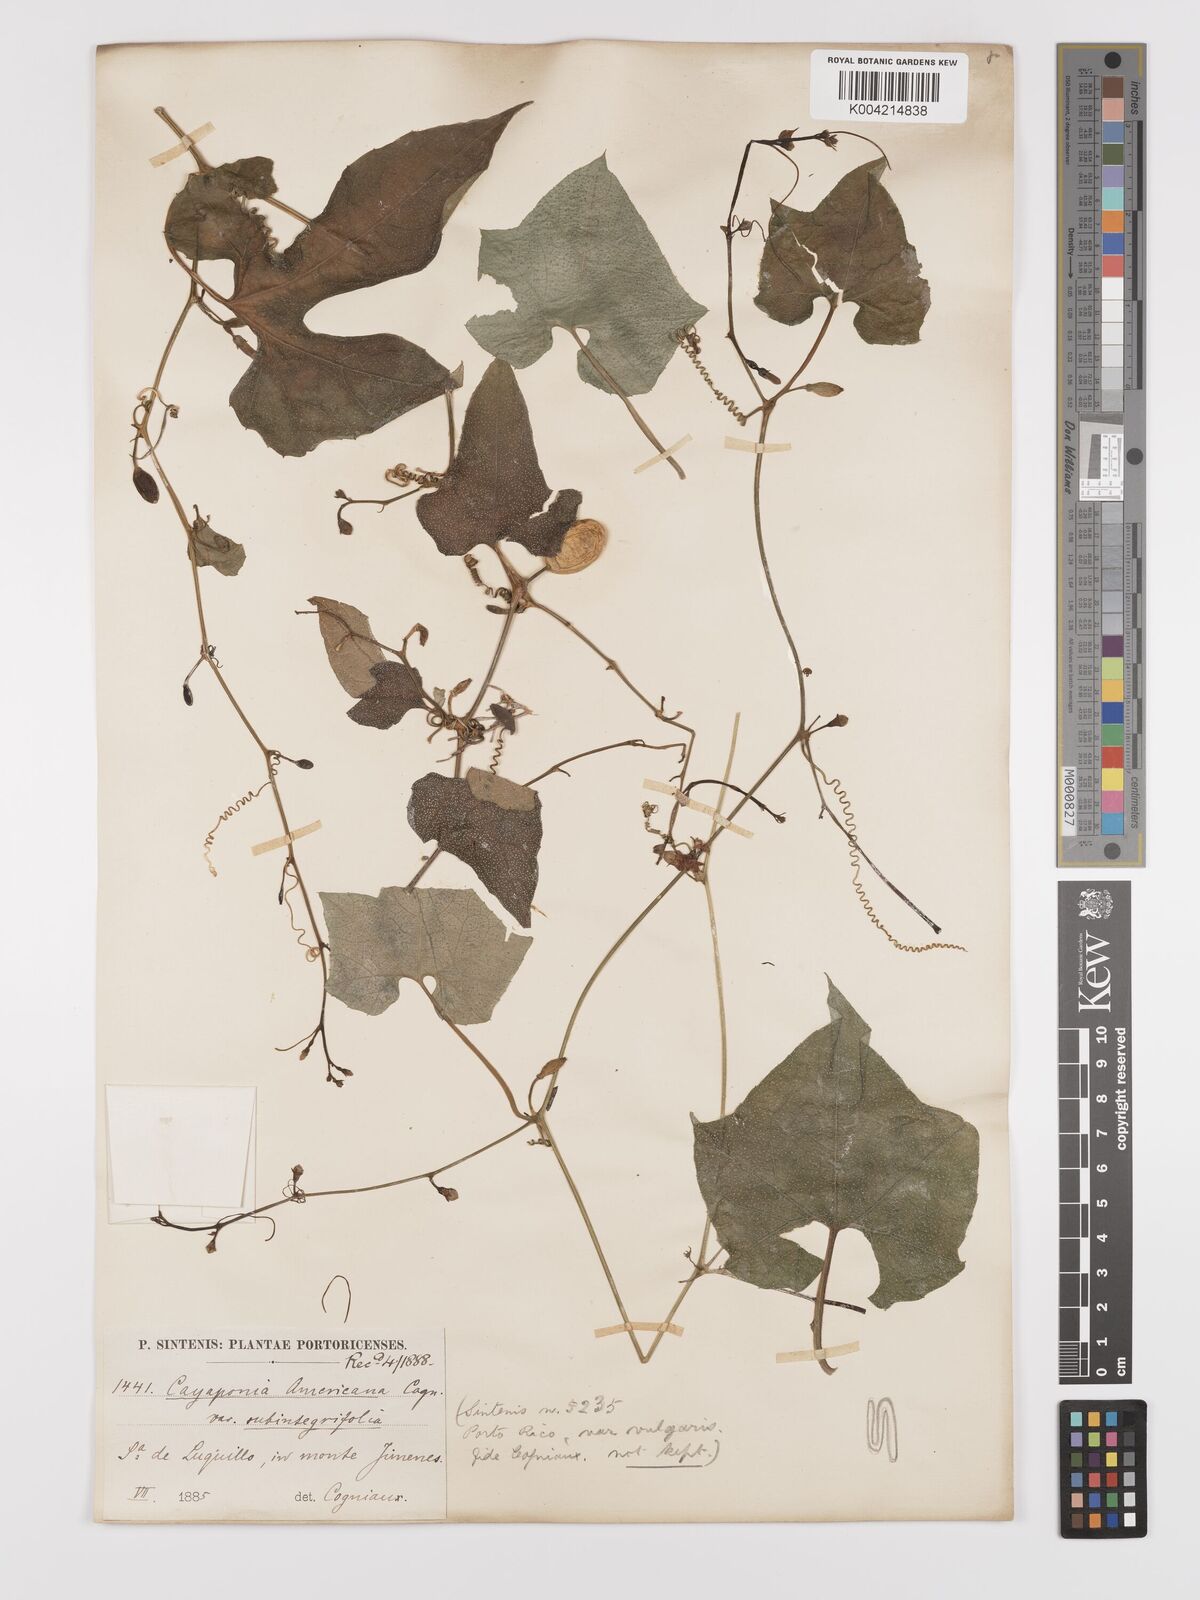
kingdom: Plantae
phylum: Tracheophyta
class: Magnoliopsida
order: Cucurbitales
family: Cucurbitaceae
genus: Cayaponia
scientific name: Cayaponia americana
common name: American melonleaf
